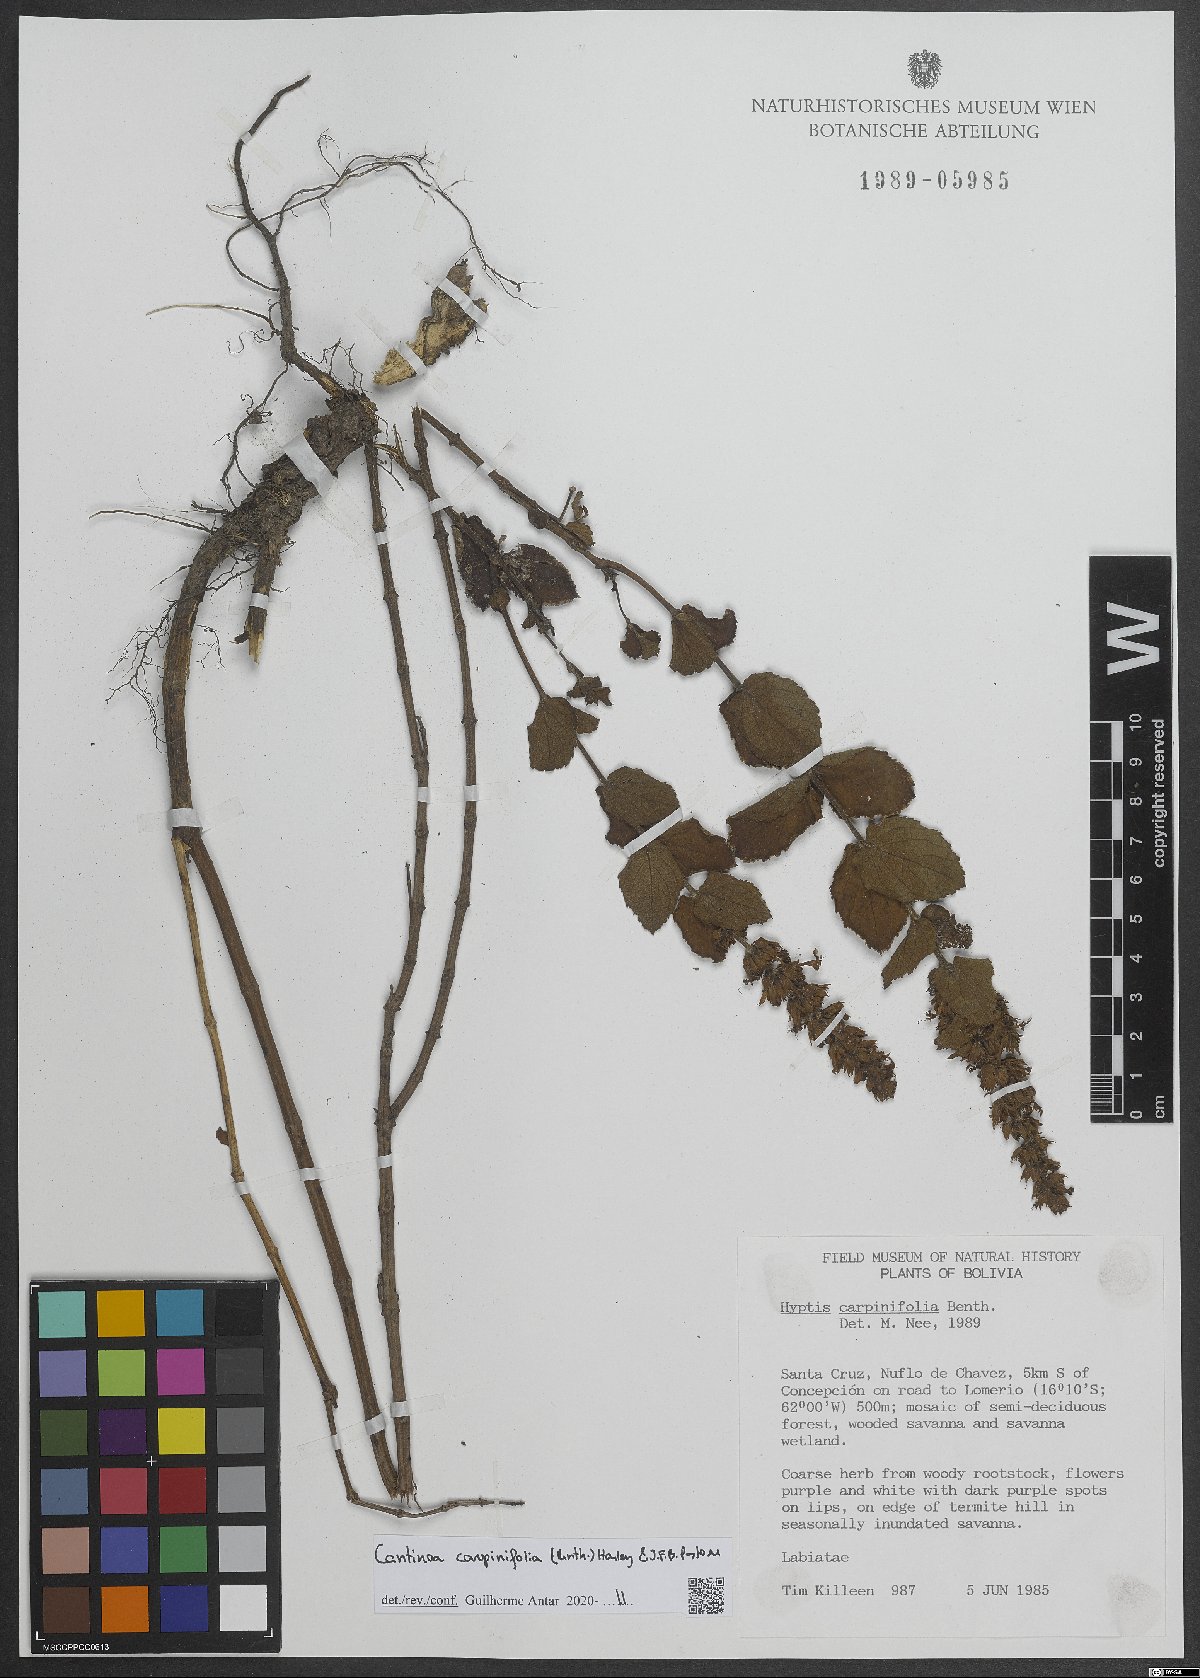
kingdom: Plantae
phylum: Tracheophyta
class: Magnoliopsida
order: Lamiales
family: Lamiaceae
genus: Cantinoa
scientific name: Cantinoa carpinifolia
